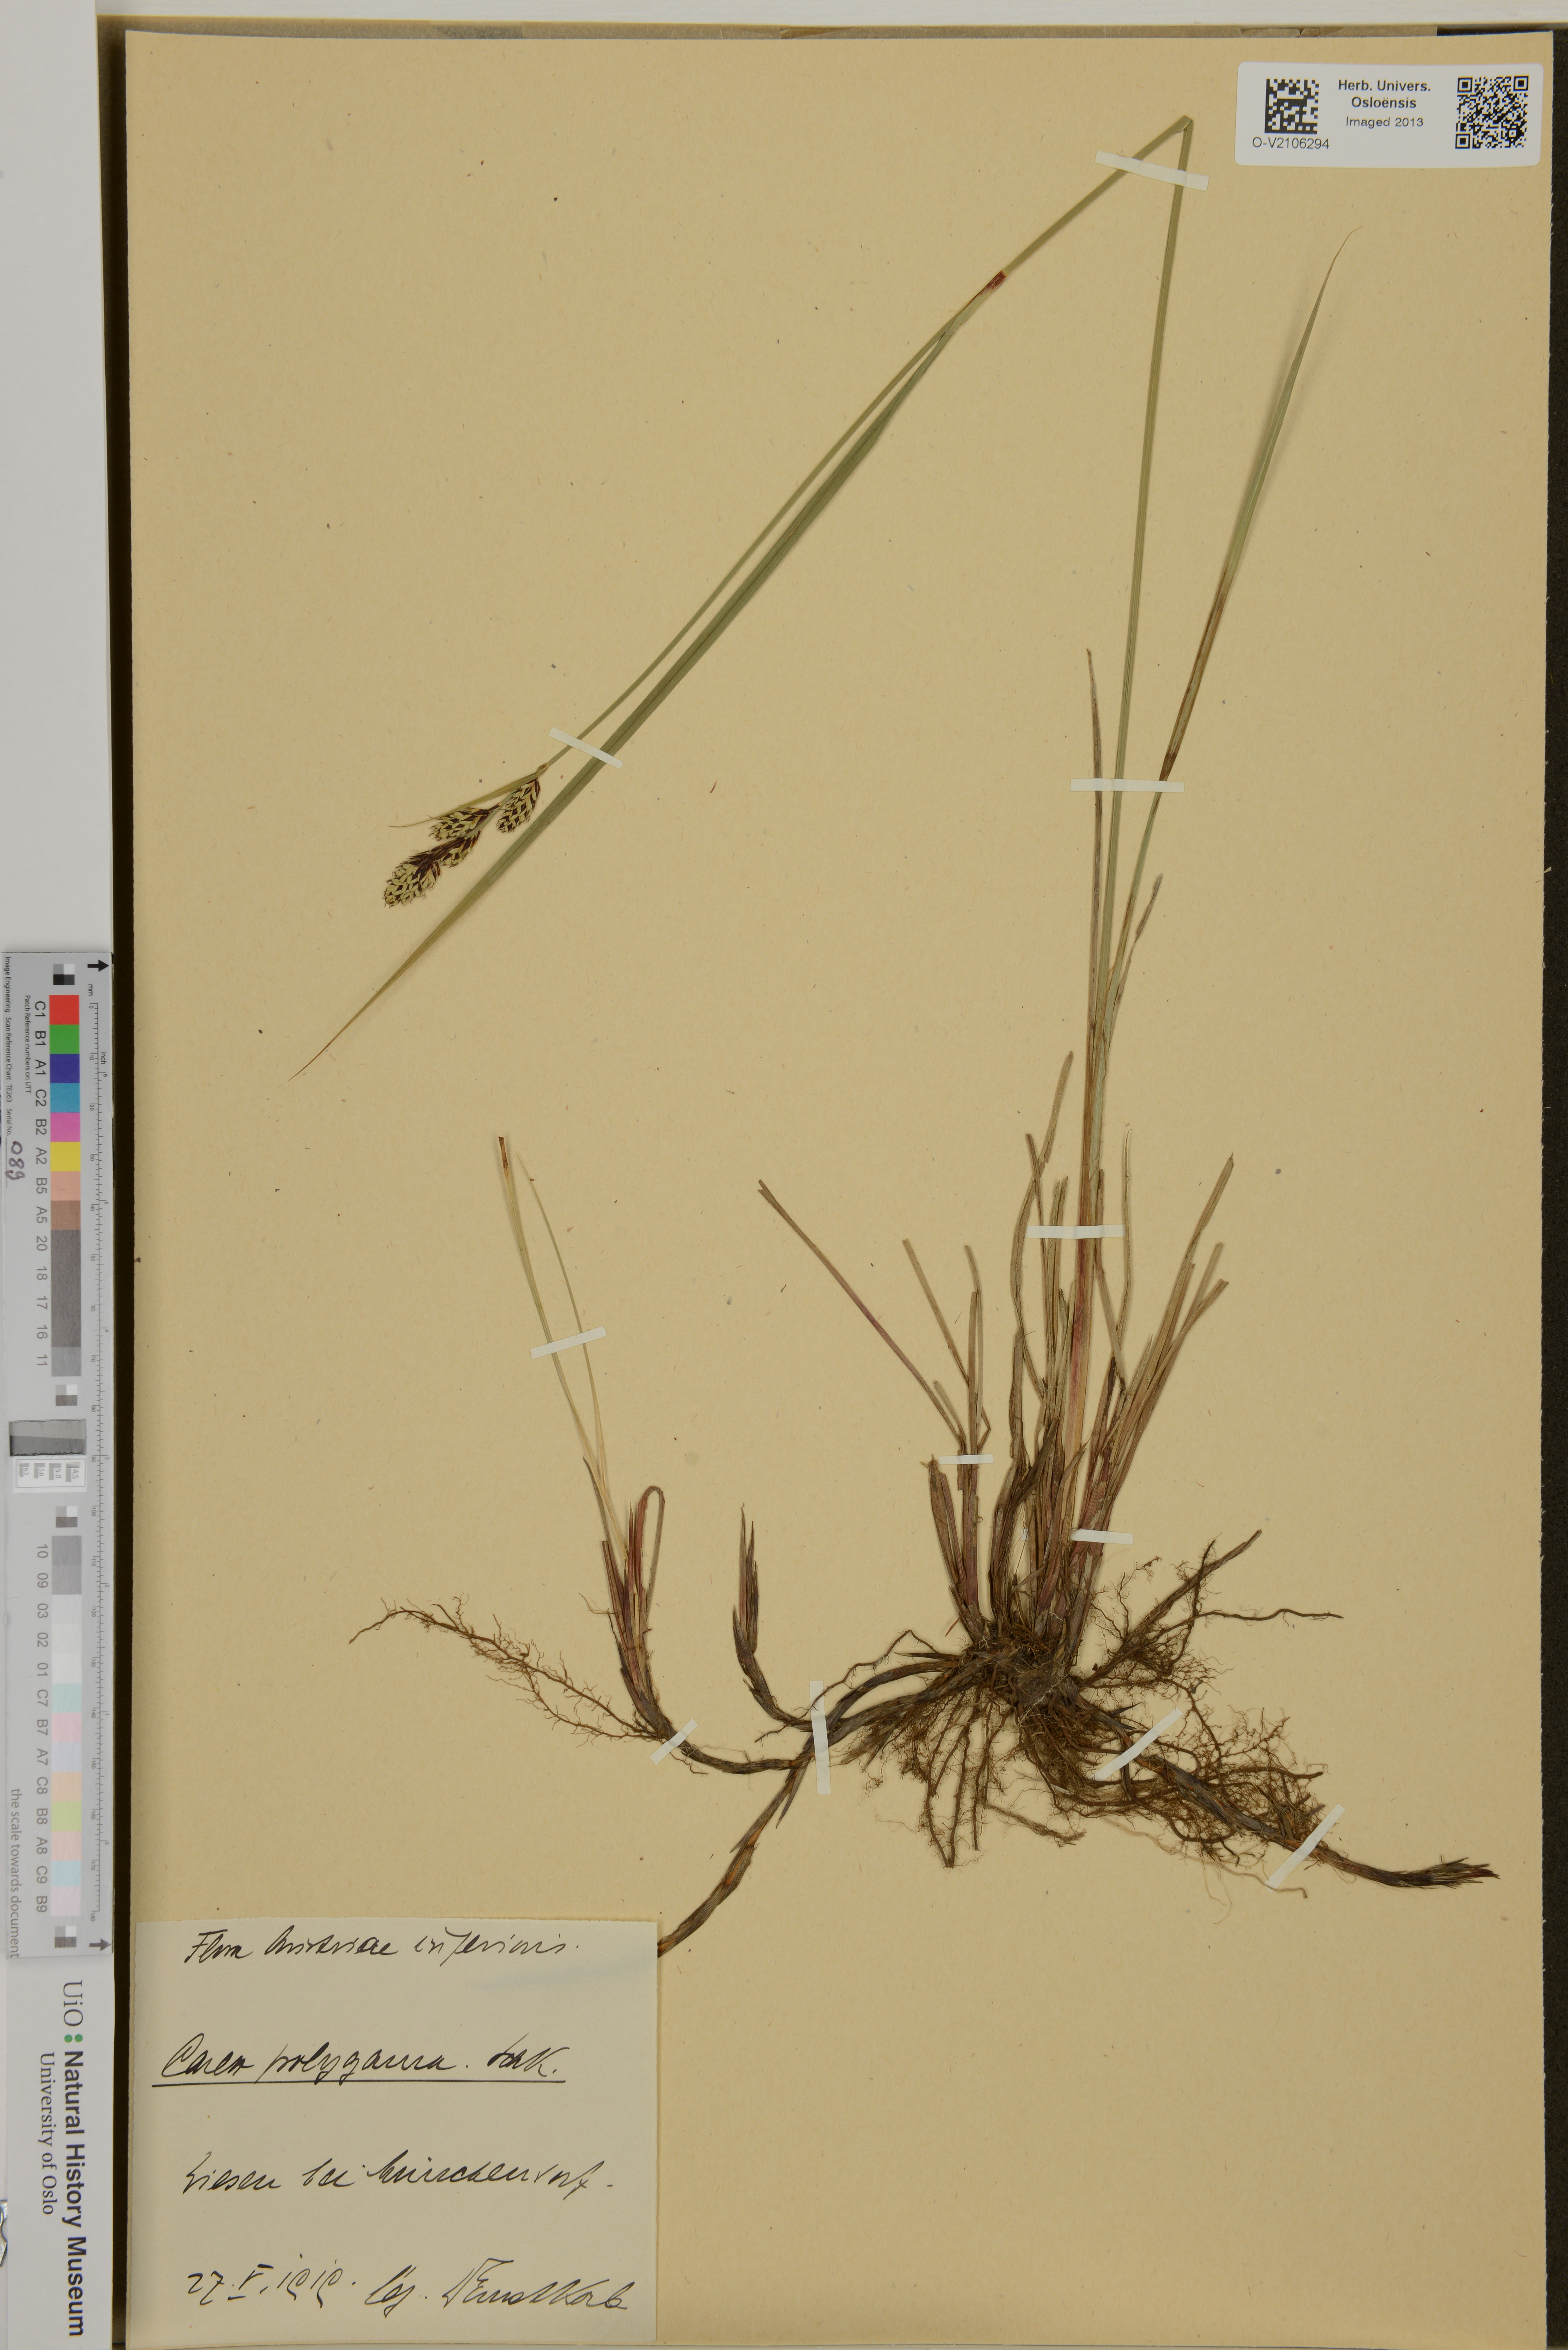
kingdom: Plantae
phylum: Tracheophyta
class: Liliopsida
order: Poales
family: Cyperaceae
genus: Carex
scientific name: Carex buxbaumii
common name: Club sedge
